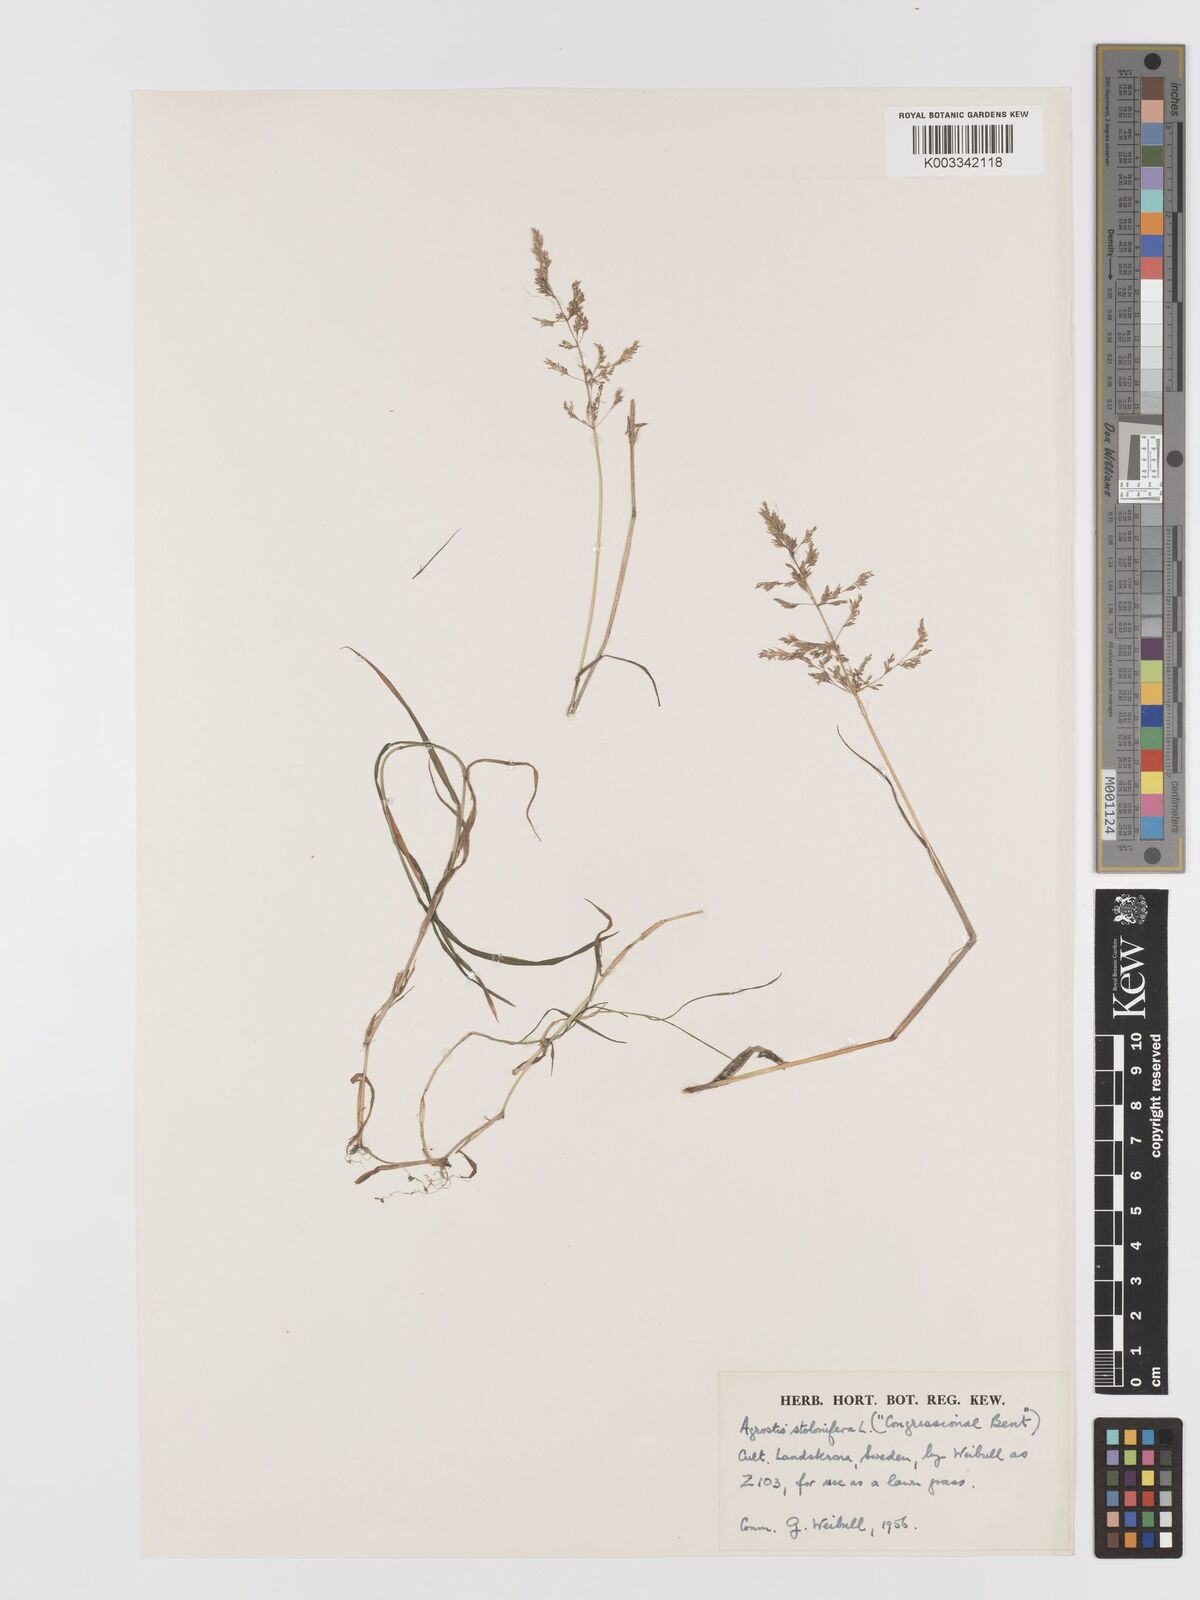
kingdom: Plantae
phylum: Tracheophyta
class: Liliopsida
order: Poales
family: Poaceae
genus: Agrostis
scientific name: Agrostis stolonifera
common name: Creeping bentgrass
